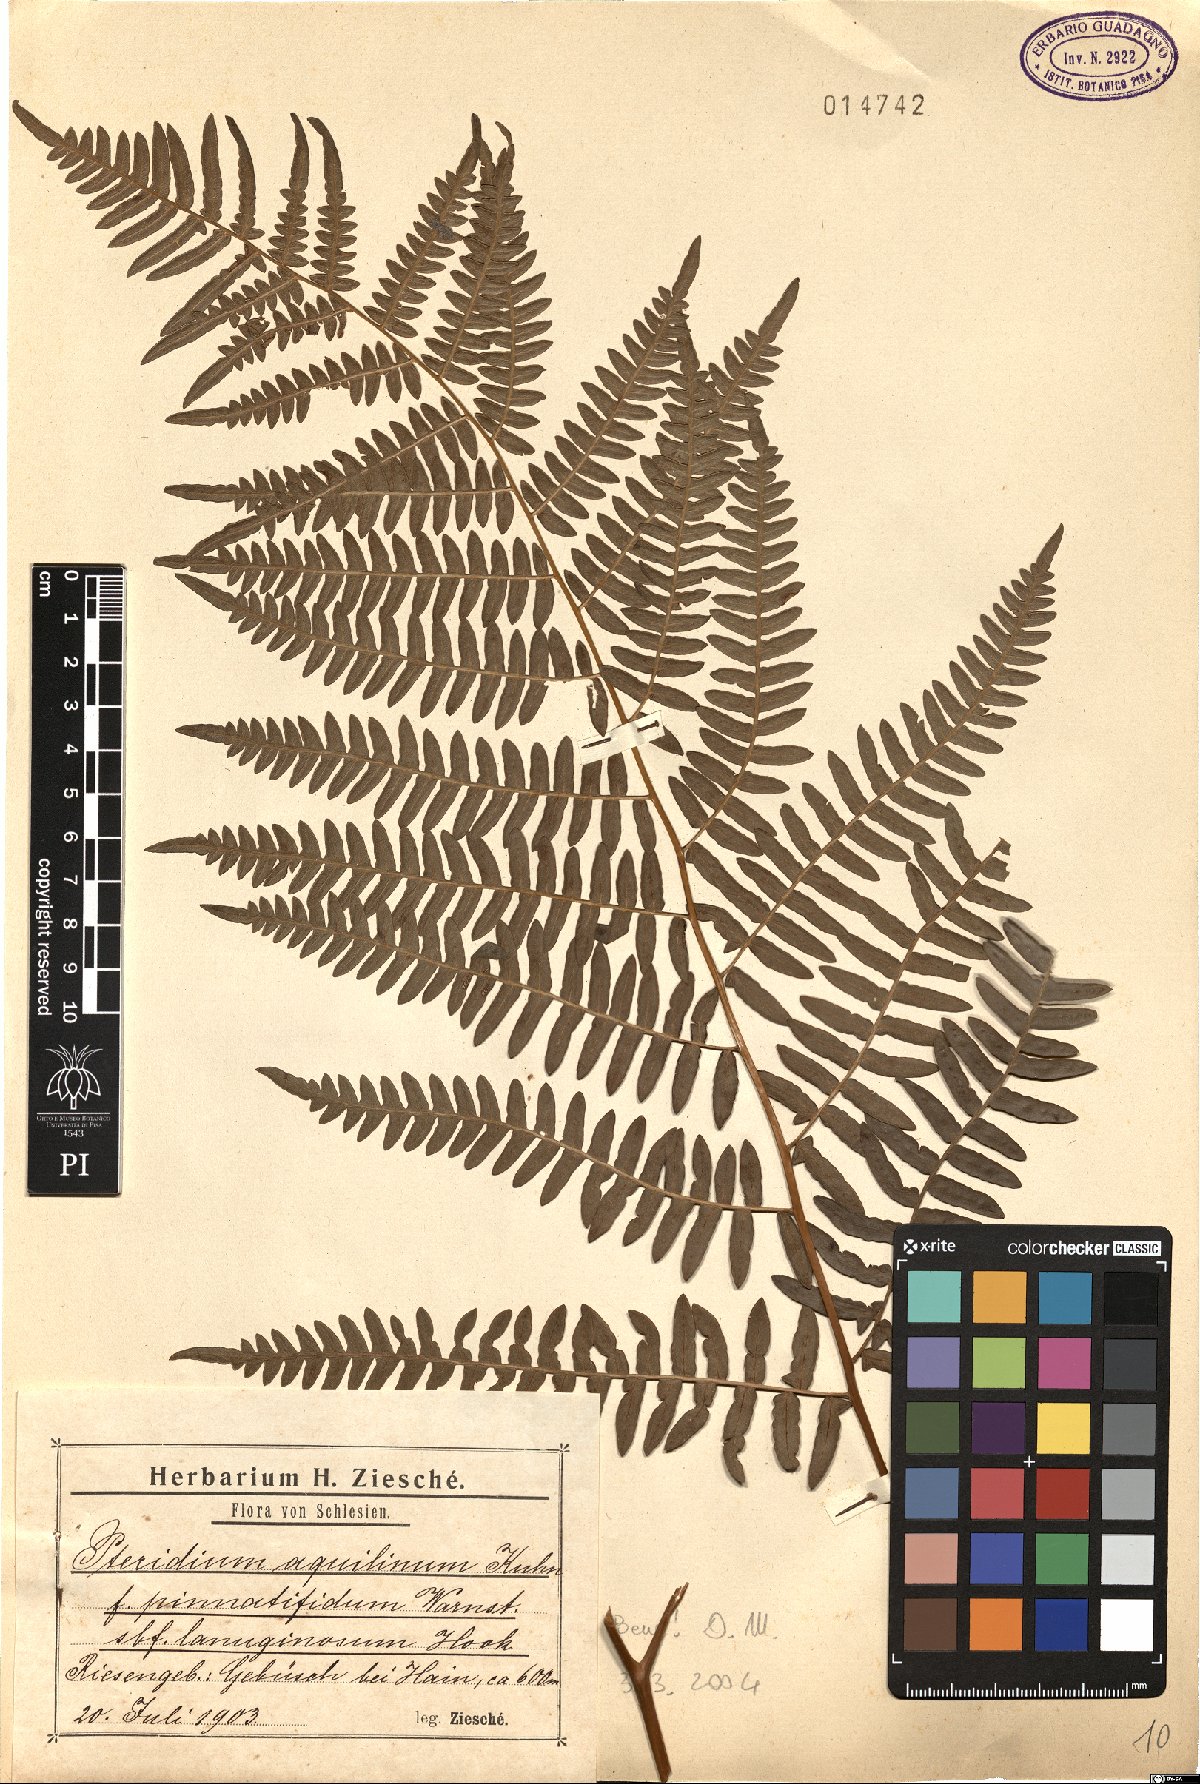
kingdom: Plantae
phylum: Tracheophyta
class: Polypodiopsida
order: Polypodiales
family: Dennstaedtiaceae
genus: Pteridium
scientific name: Pteridium aquilinum
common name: Bracken
